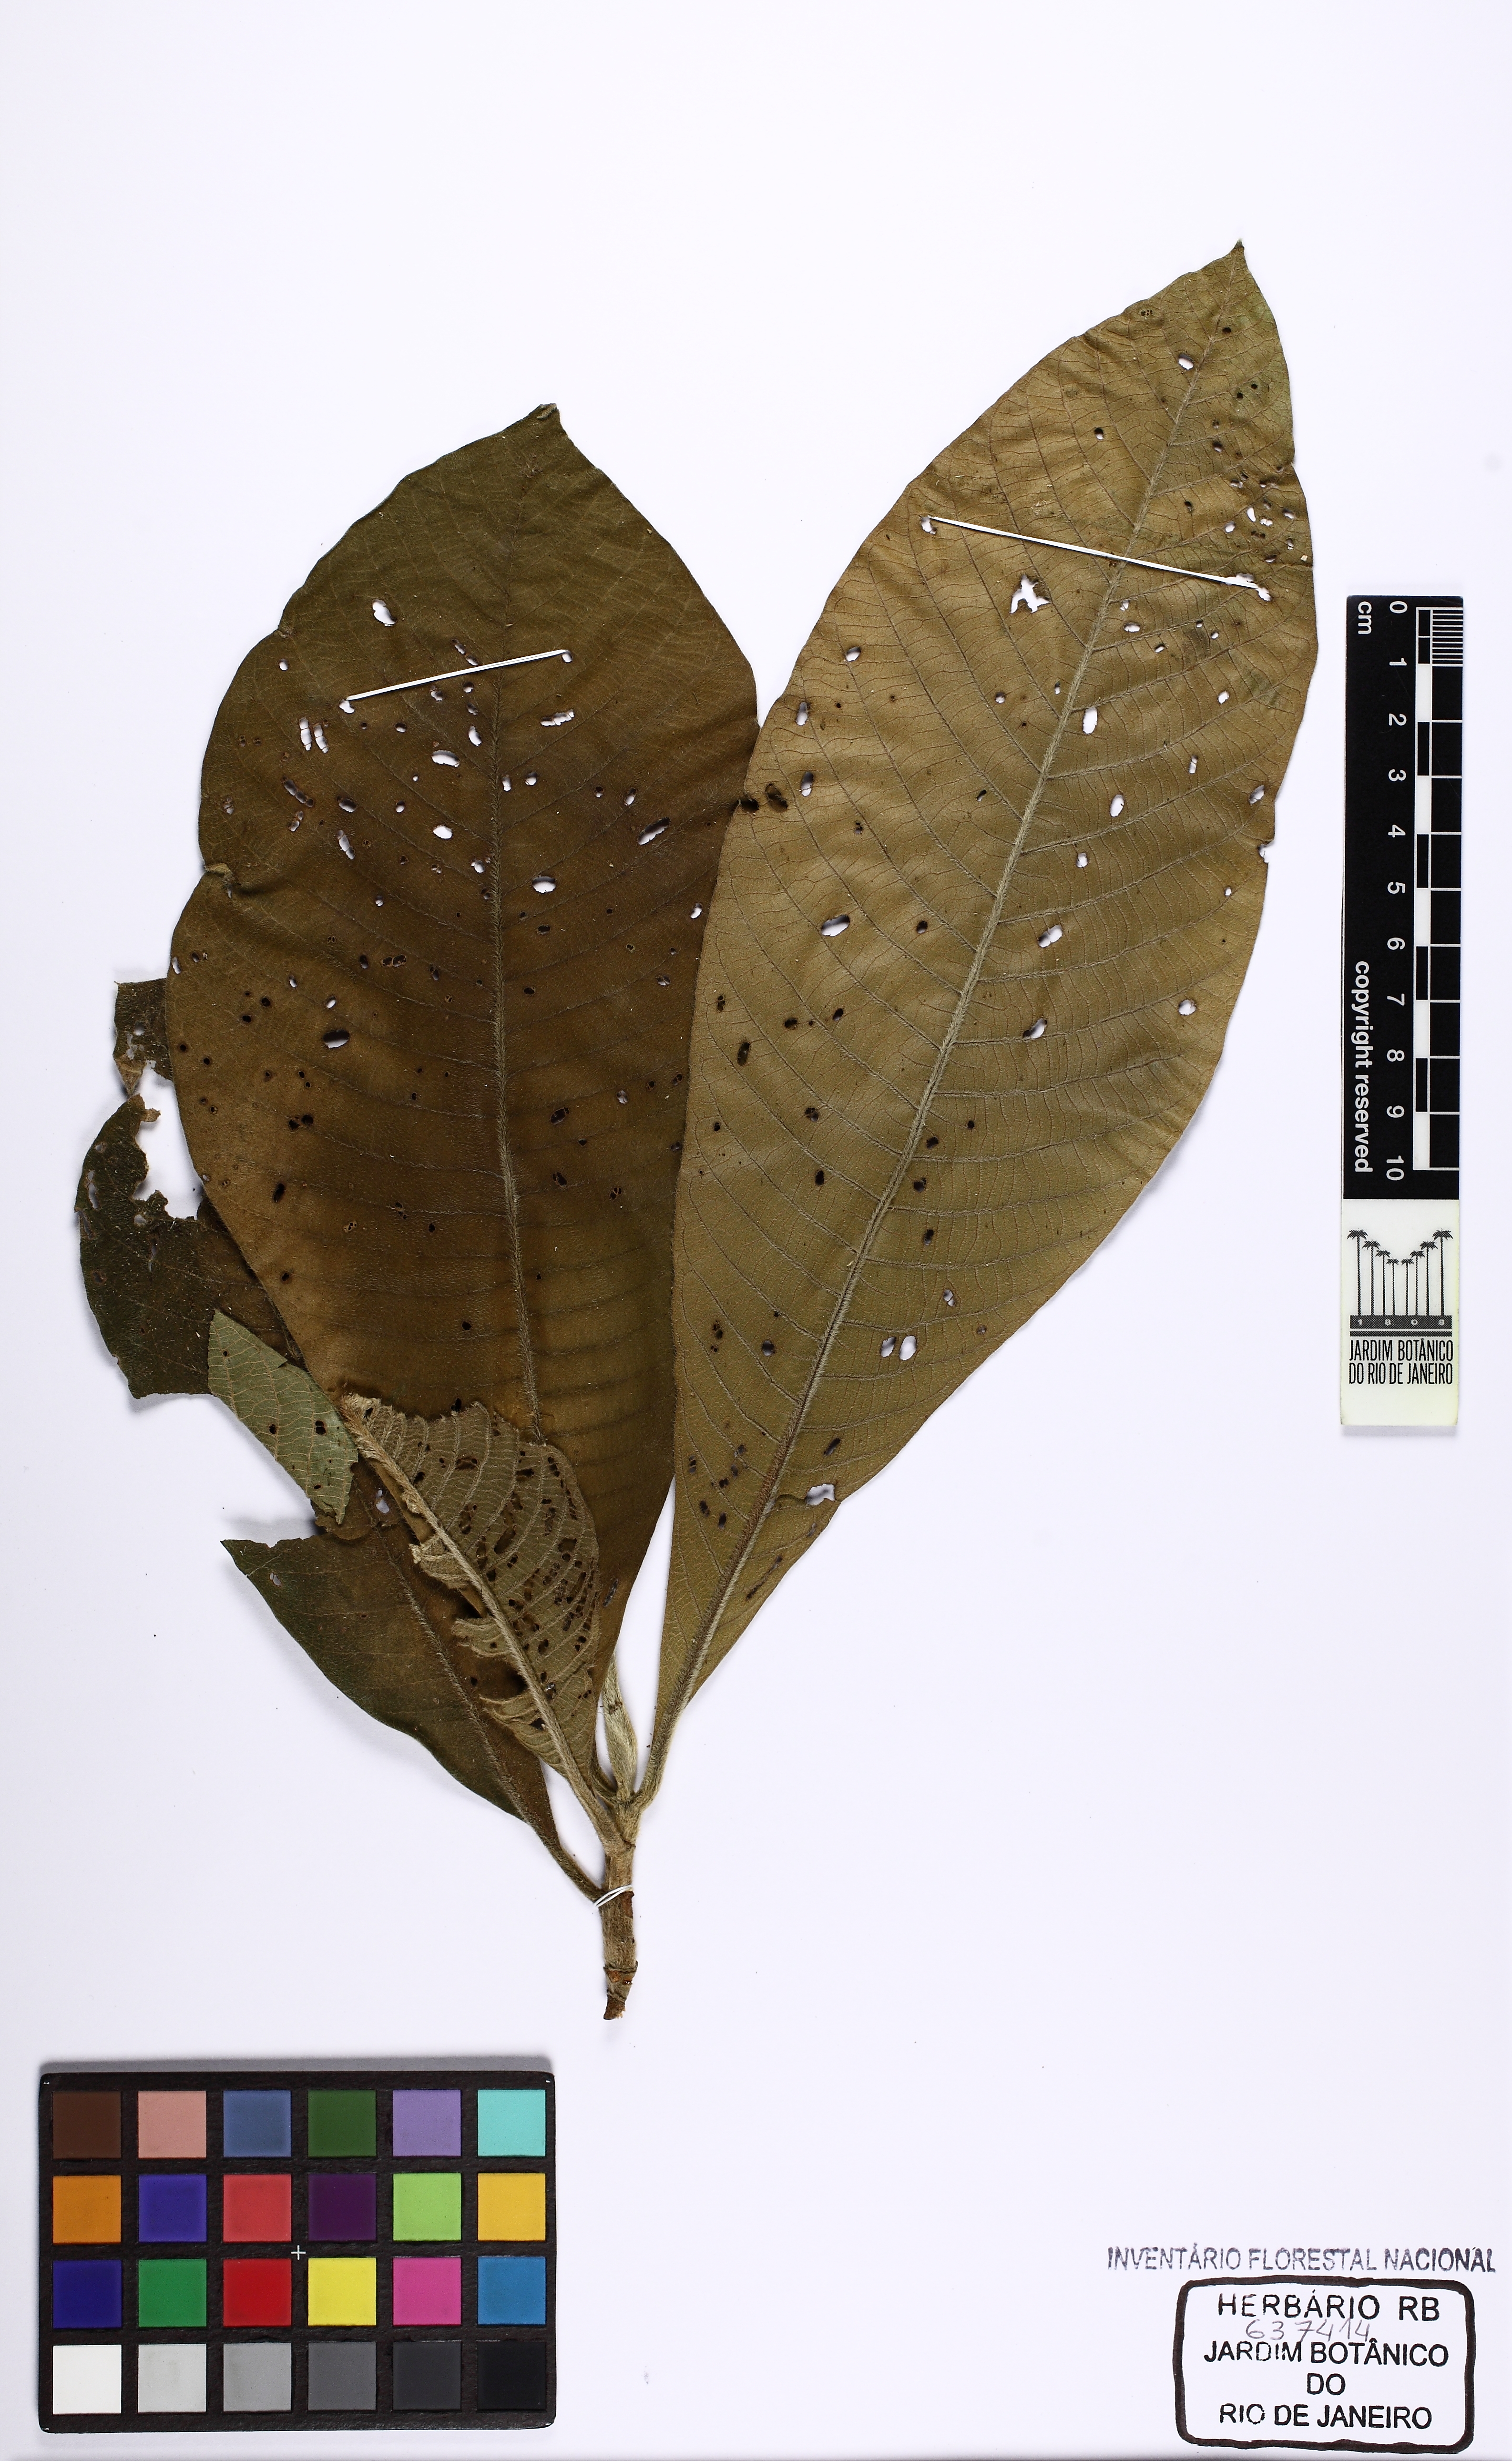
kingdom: Plantae
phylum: Tracheophyta
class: Magnoliopsida
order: Gentianales
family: Rubiaceae
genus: Schizocalyx
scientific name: Schizocalyx cuspidatus
